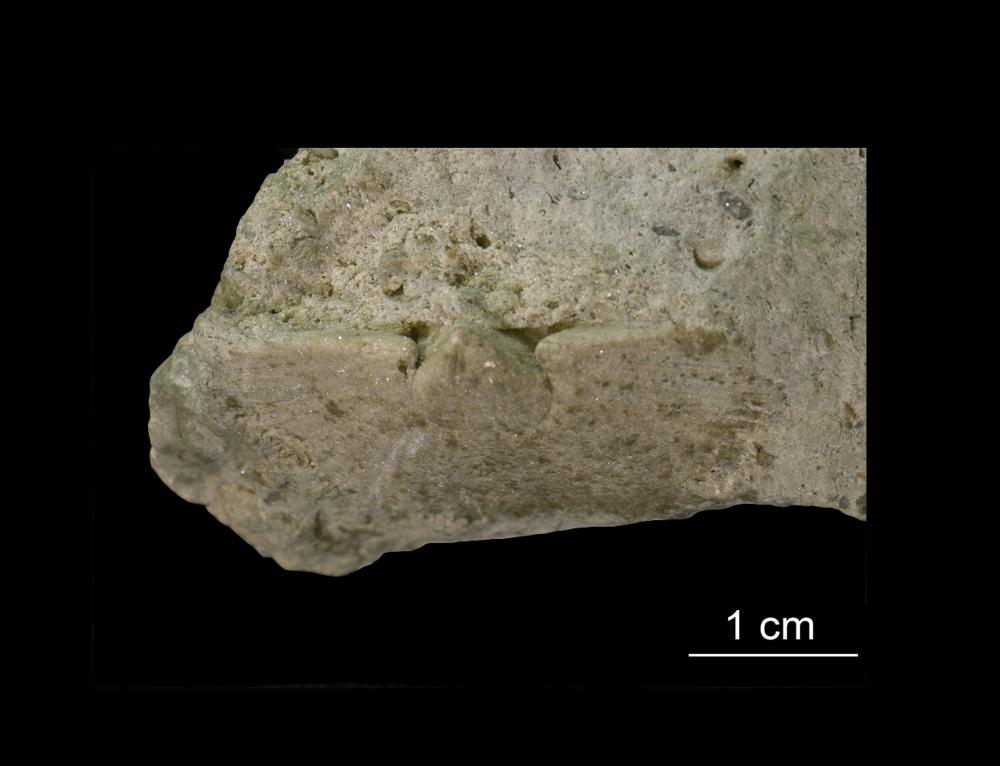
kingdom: Animalia
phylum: Brachiopoda
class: Rhynchonellata
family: Dolerorthidae
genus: Dolerorthis
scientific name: Dolerorthis Orthis rustica
